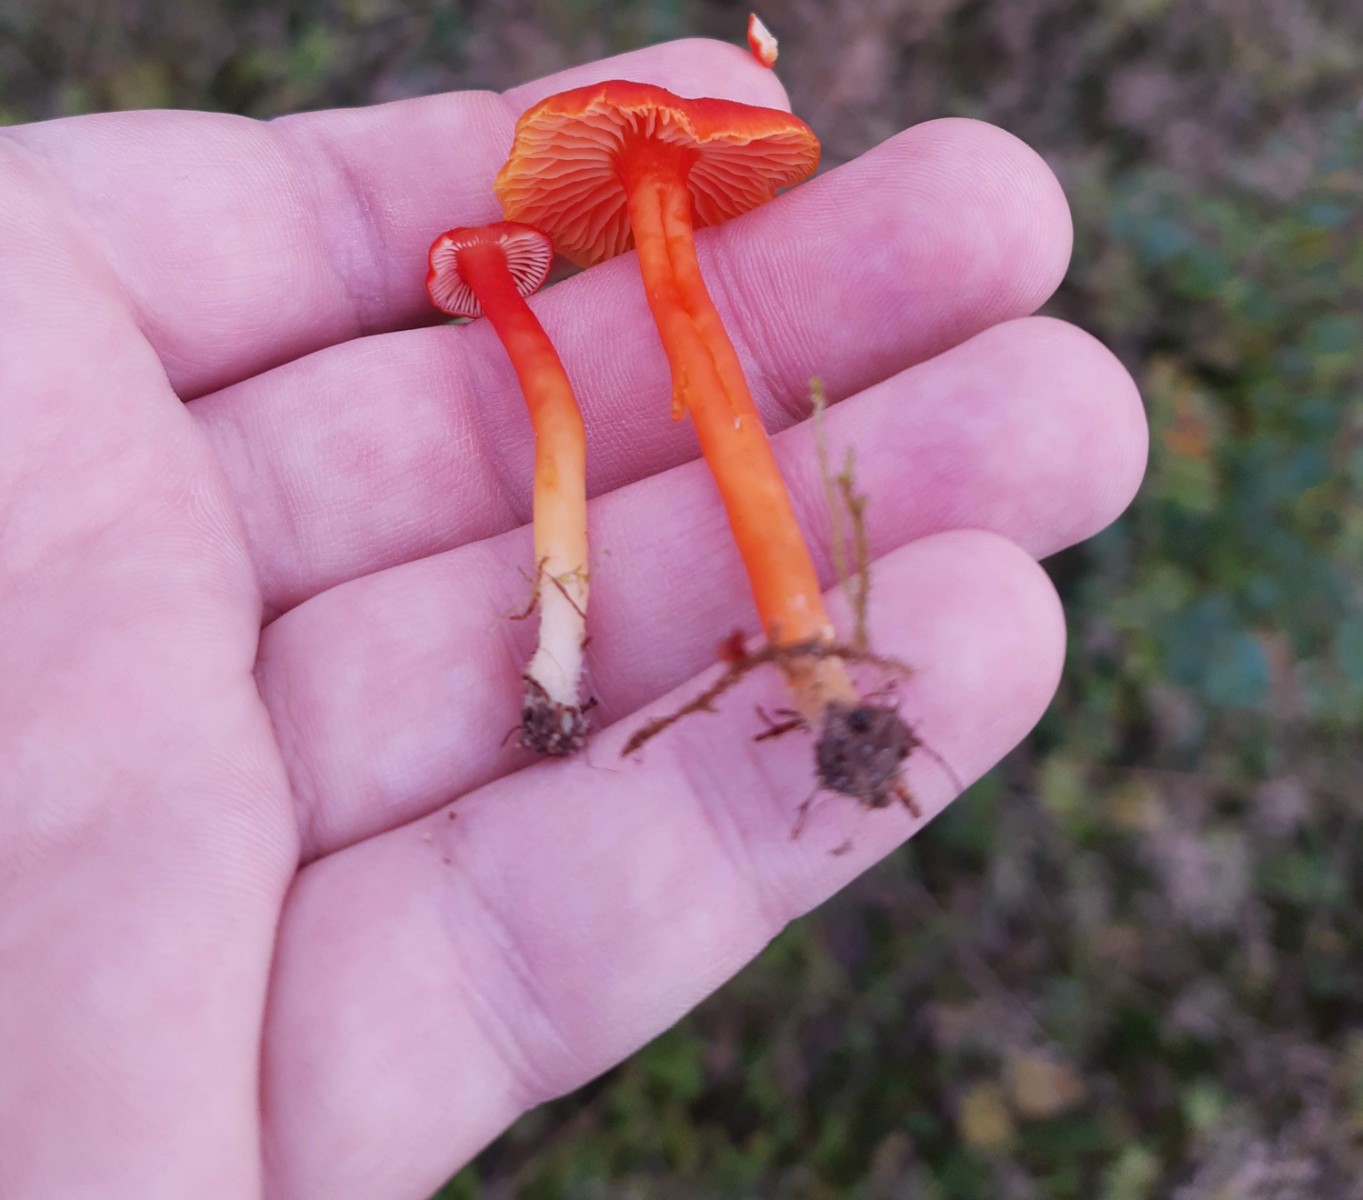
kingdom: Fungi
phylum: Basidiomycota
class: Agaricomycetes
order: Agaricales
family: Hygrophoraceae
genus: Hygrocybe
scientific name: Hygrocybe miniata
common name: mønje-vokshat
